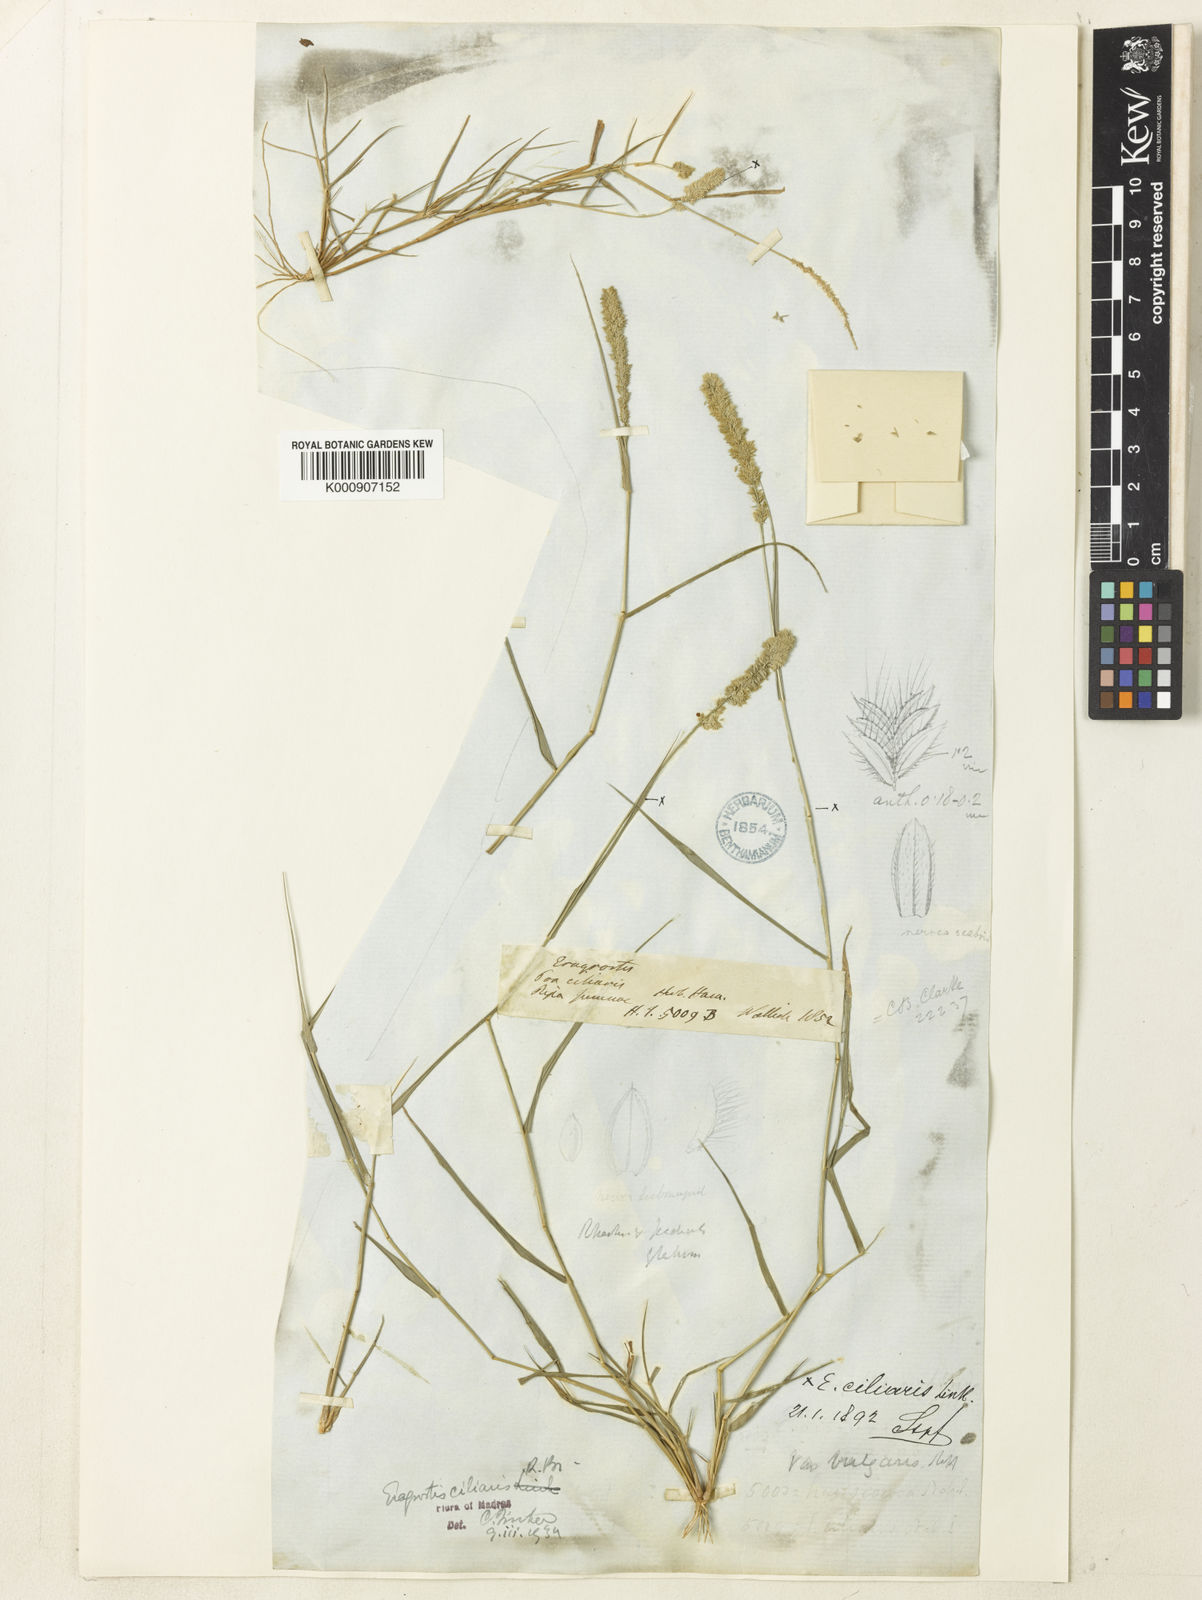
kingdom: Plantae
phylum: Tracheophyta
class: Liliopsida
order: Poales
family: Poaceae
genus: Eragrostis
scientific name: Eragrostis
